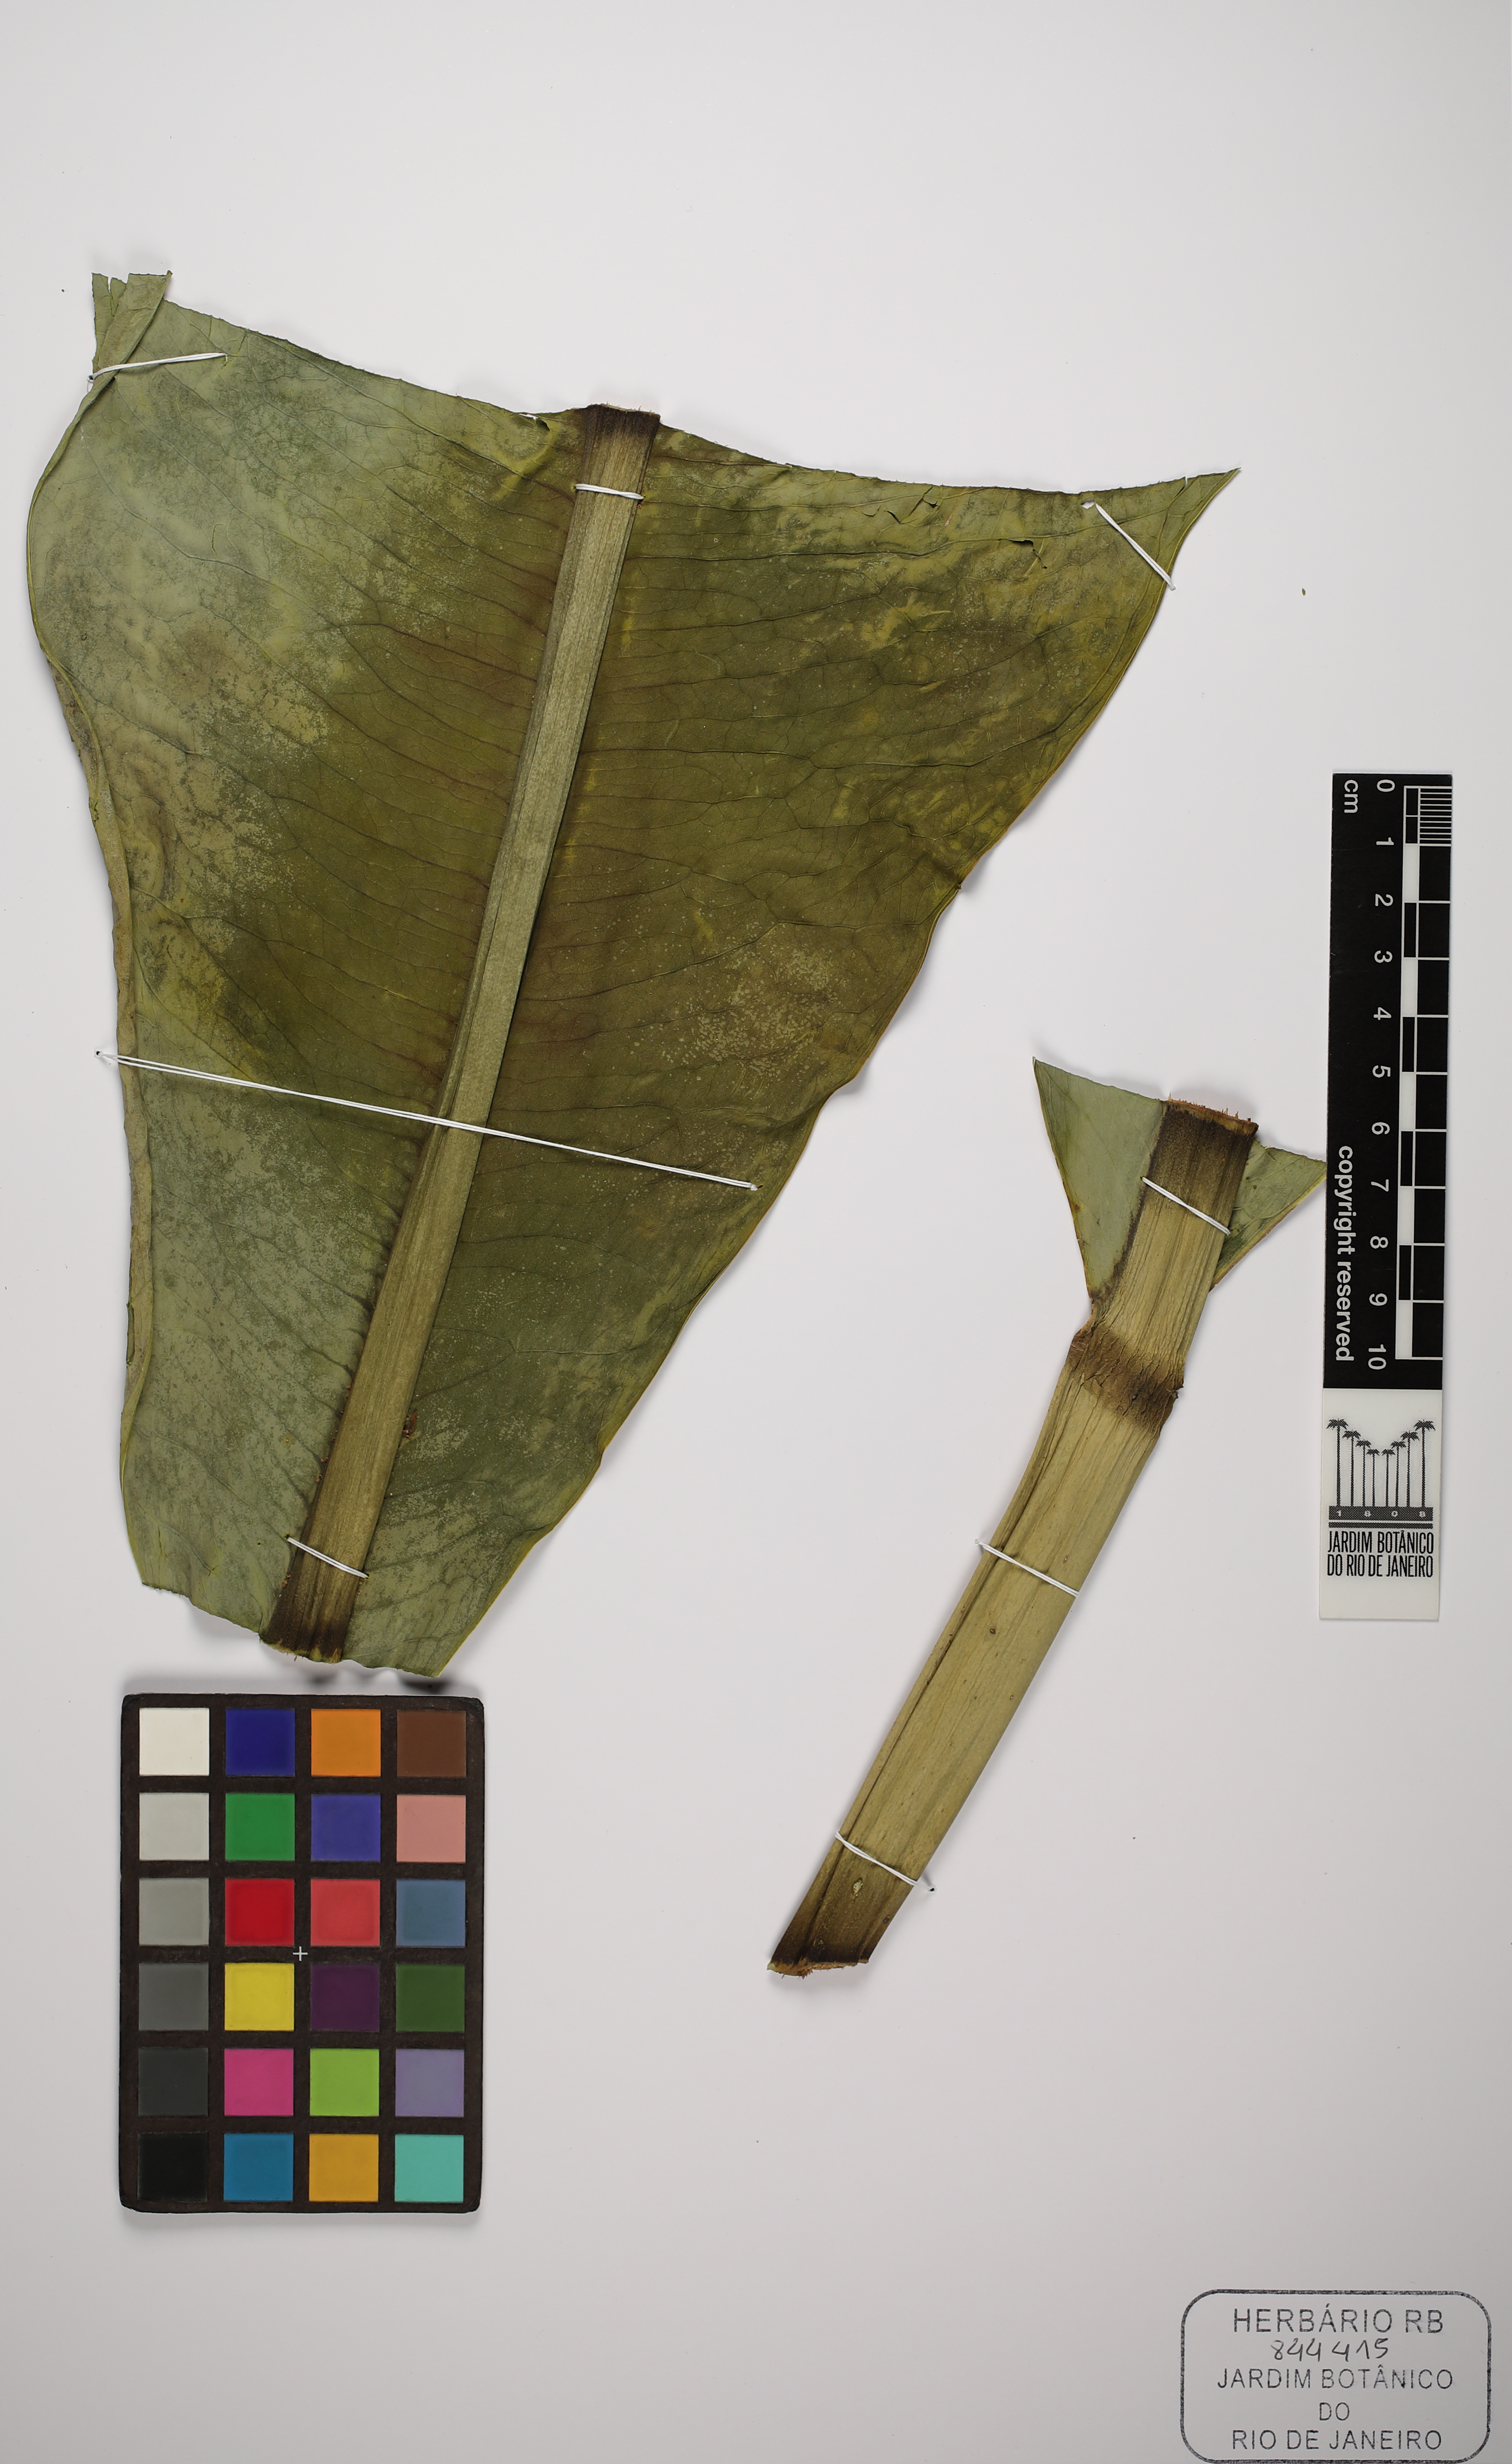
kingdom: Plantae
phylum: Tracheophyta
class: Liliopsida
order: Alismatales
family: Araceae
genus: Anthurium
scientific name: Anthurium coriaceum
